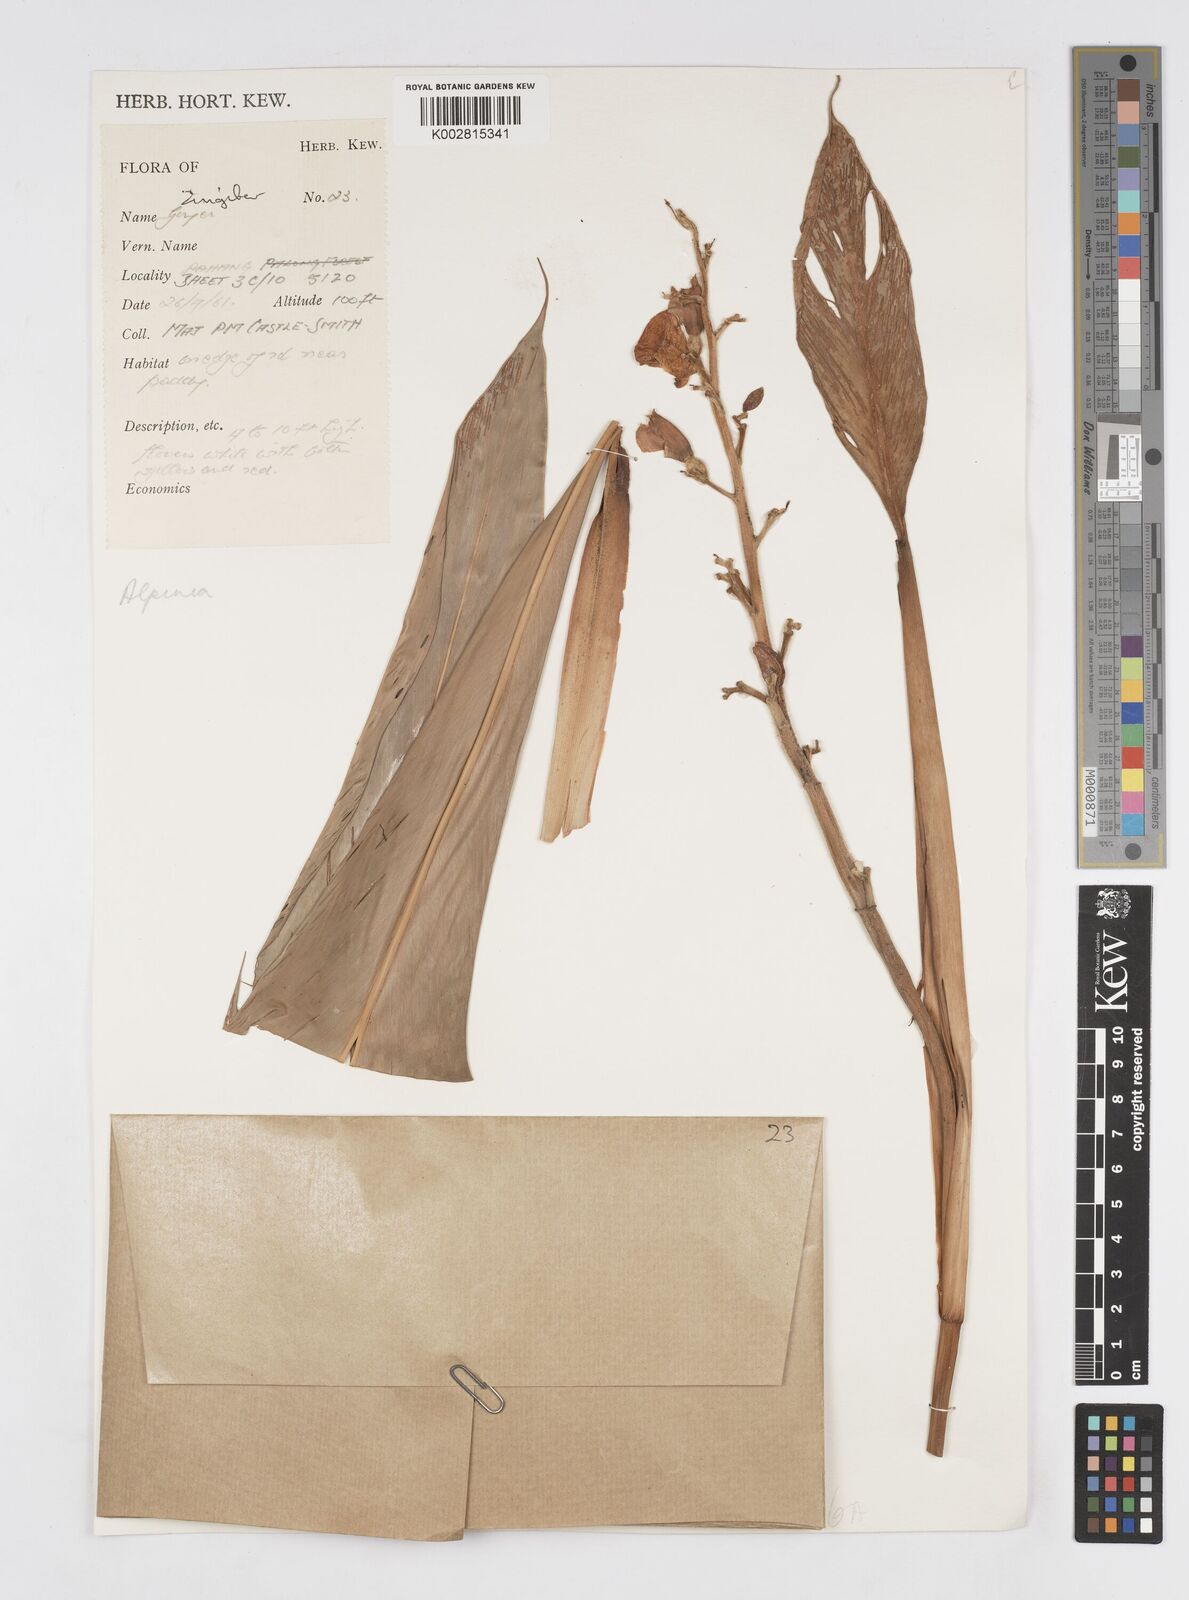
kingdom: Plantae
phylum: Tracheophyta
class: Liliopsida
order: Zingiberales
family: Zingiberaceae
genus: Alpinia
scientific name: Alpinia
